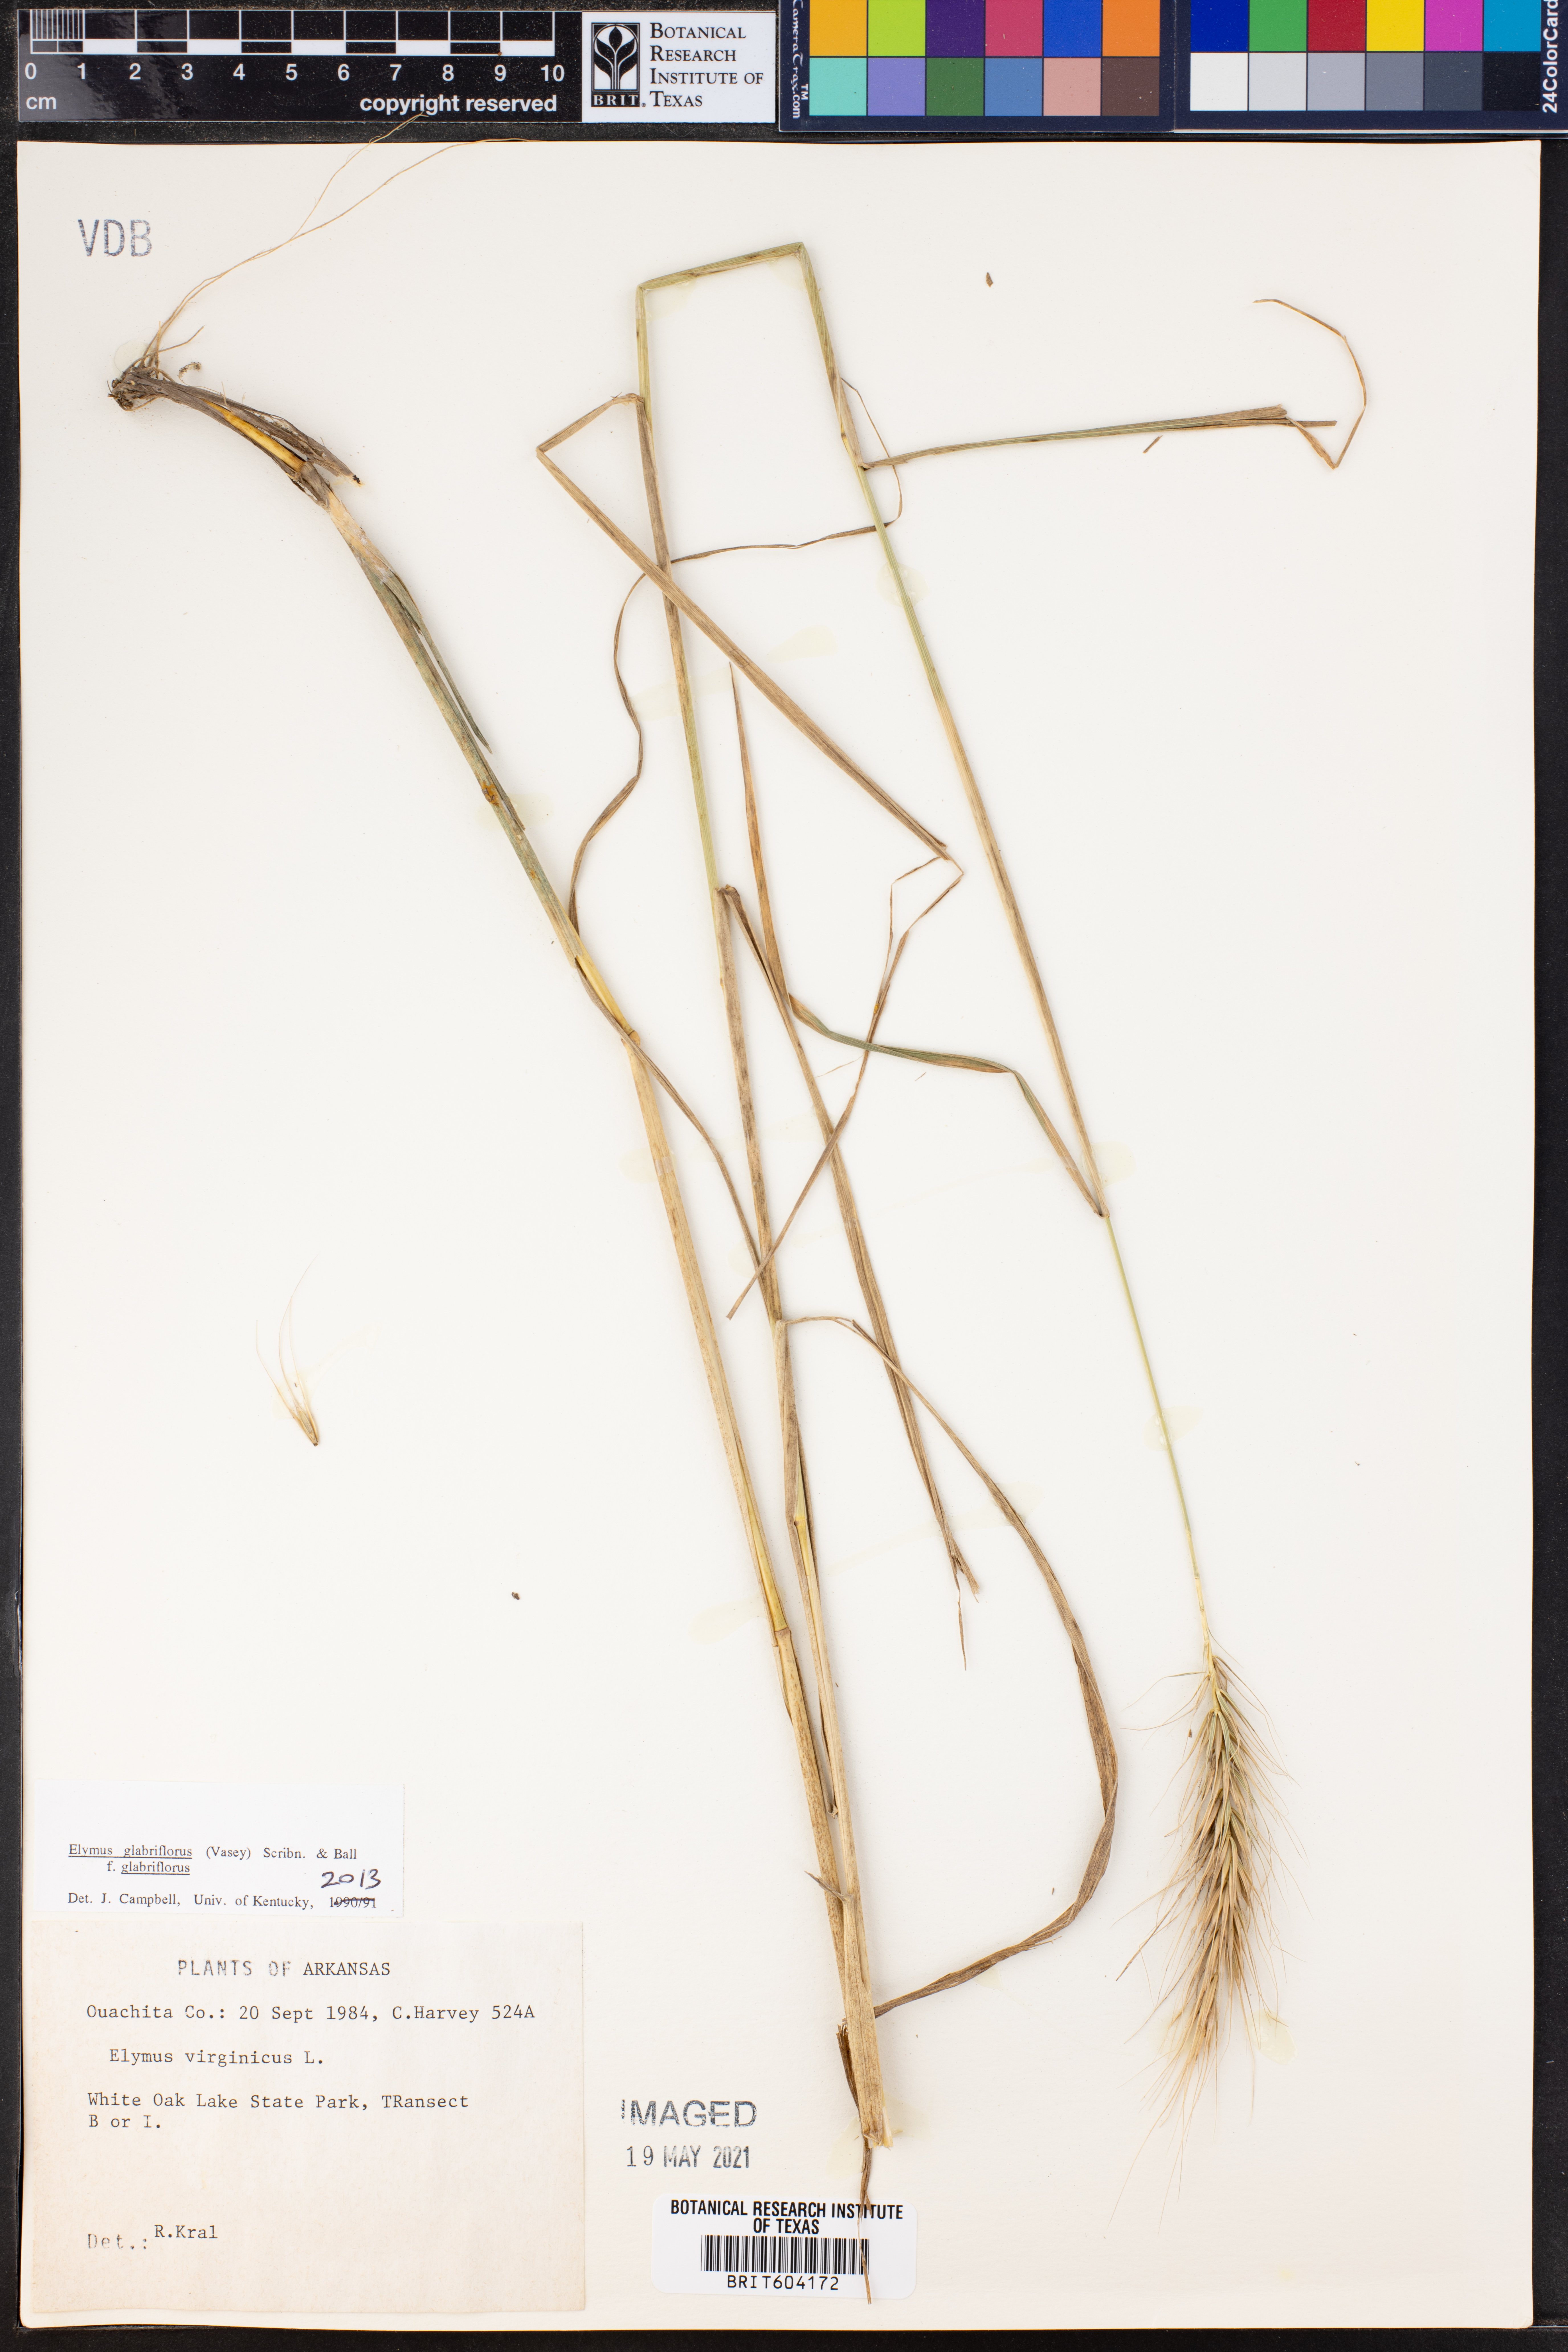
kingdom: Plantae
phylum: Tracheophyta
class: Liliopsida
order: Poales
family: Poaceae
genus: Elymus
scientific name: Elymus virginicus
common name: Common eastern wildrye
